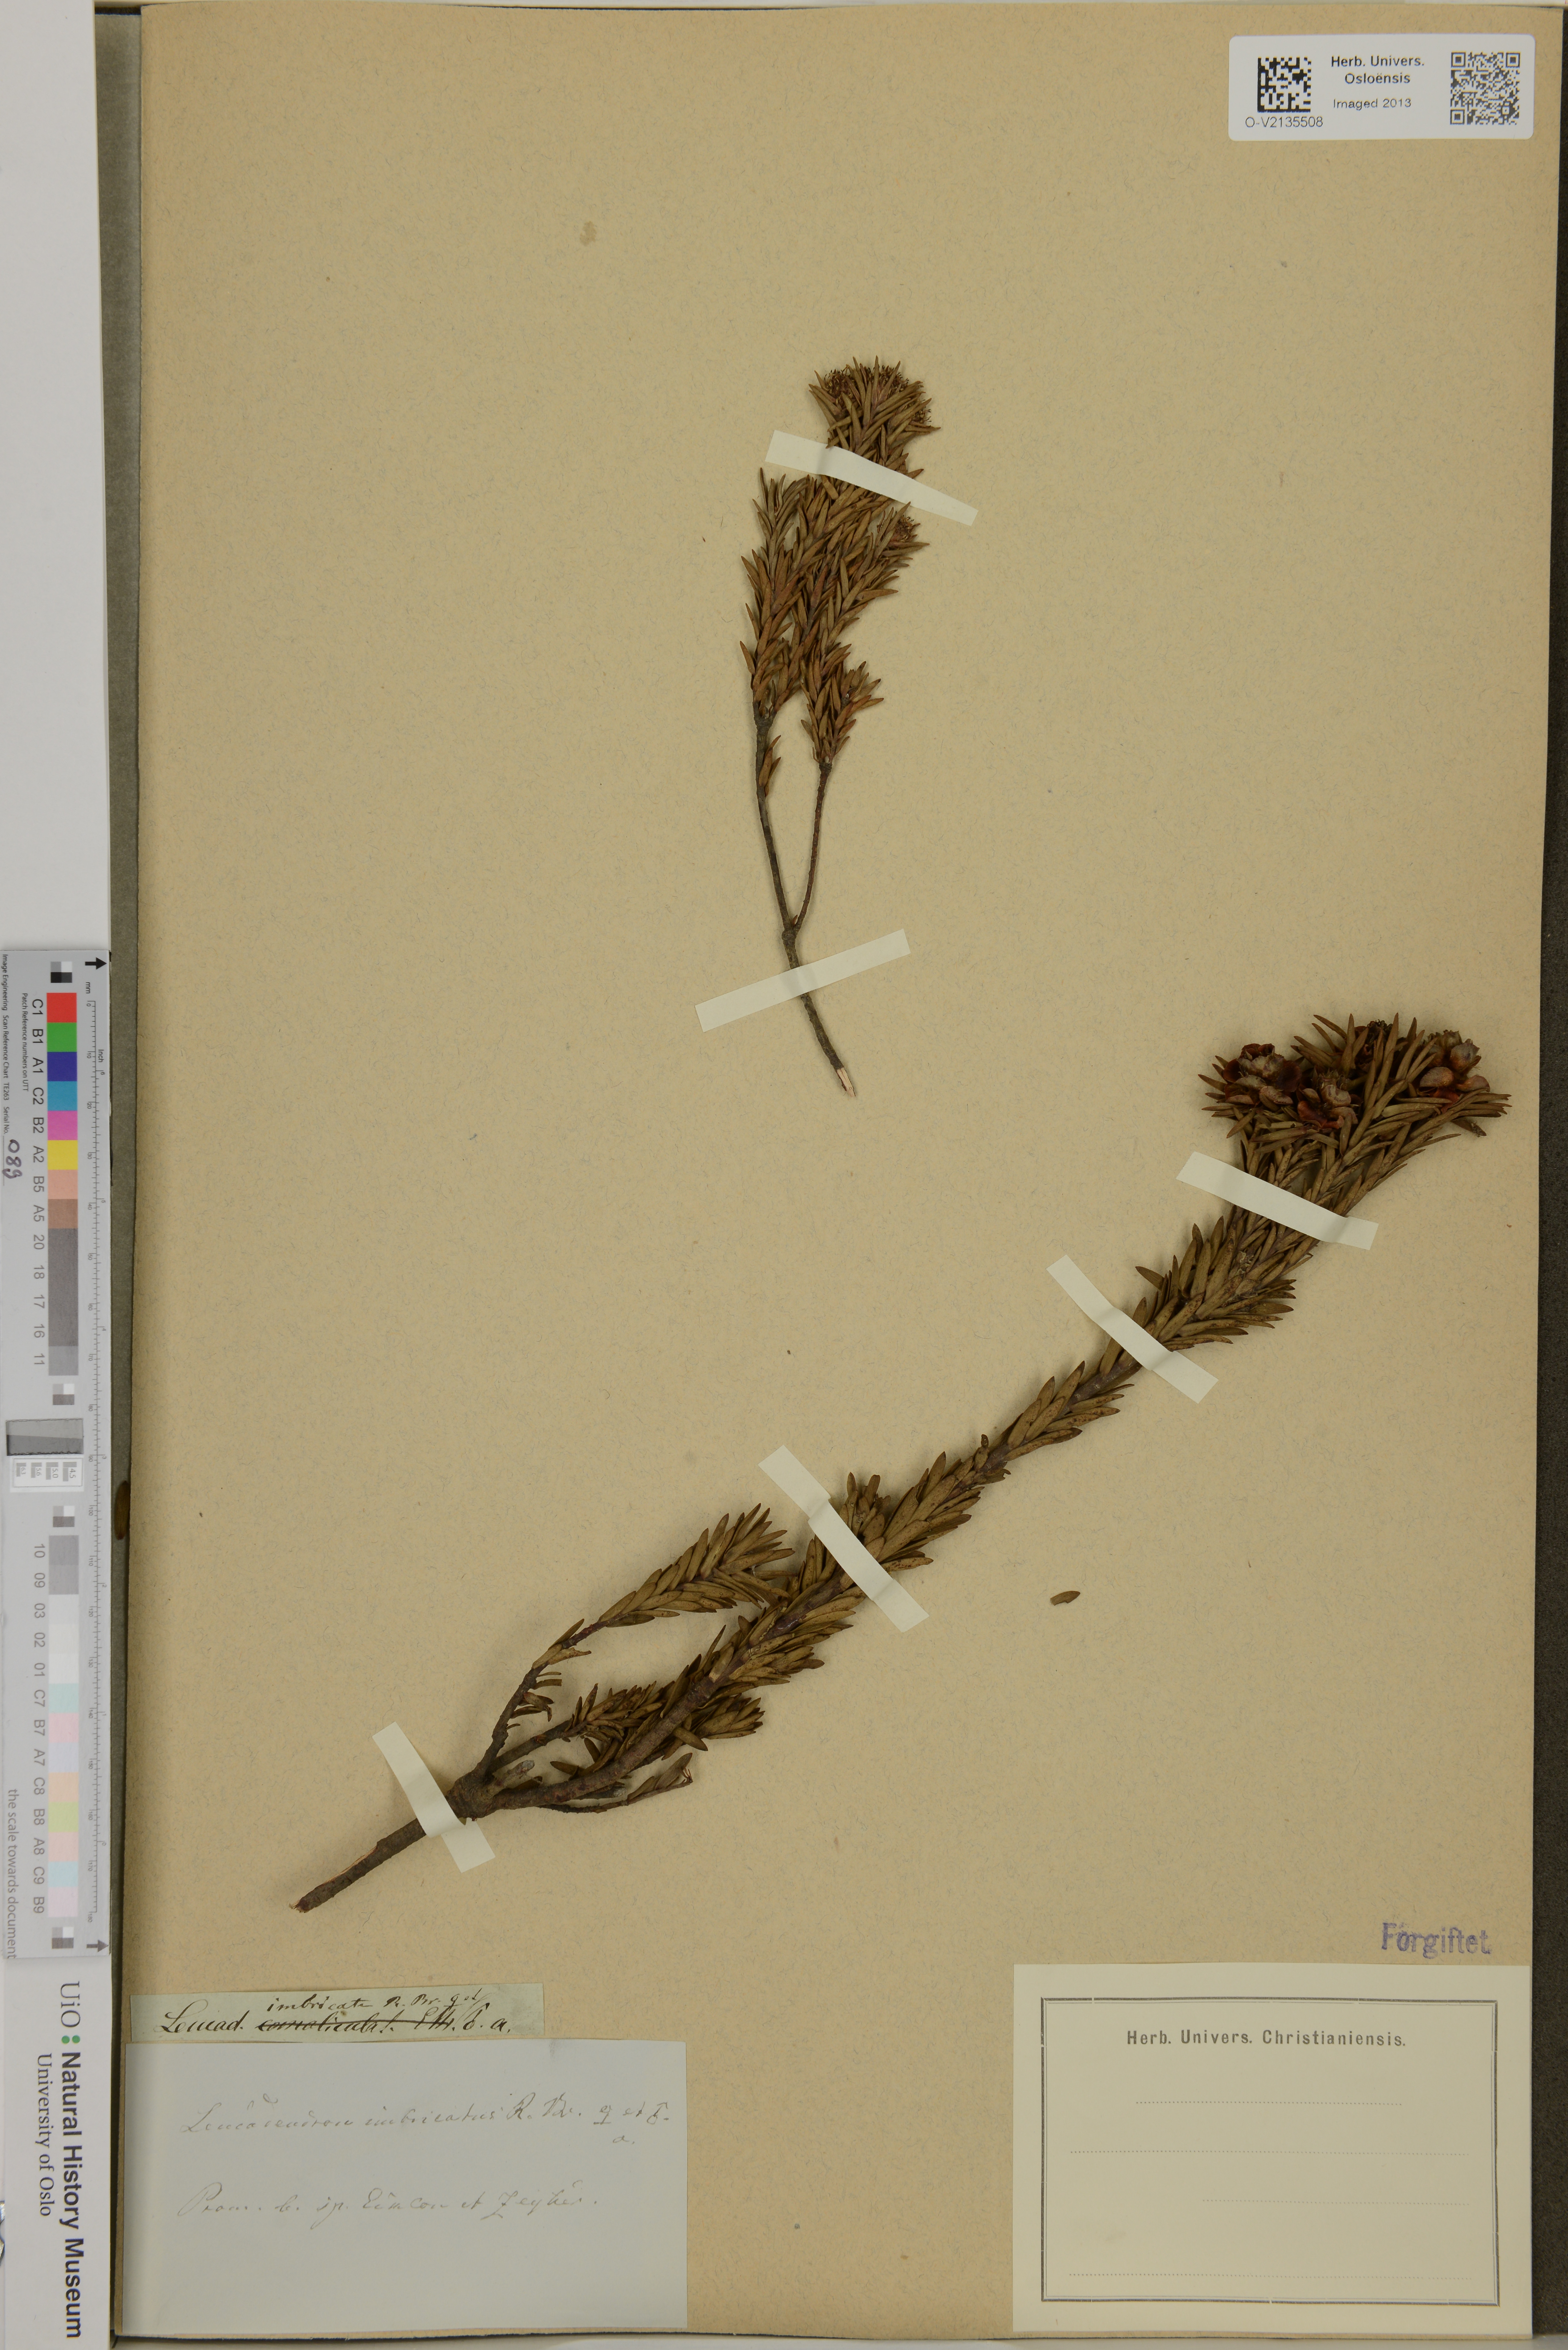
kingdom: Plantae
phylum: Tracheophyta
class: Magnoliopsida
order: Proteales
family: Proteaceae
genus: Leucadendron
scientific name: Leucadendron stellare
